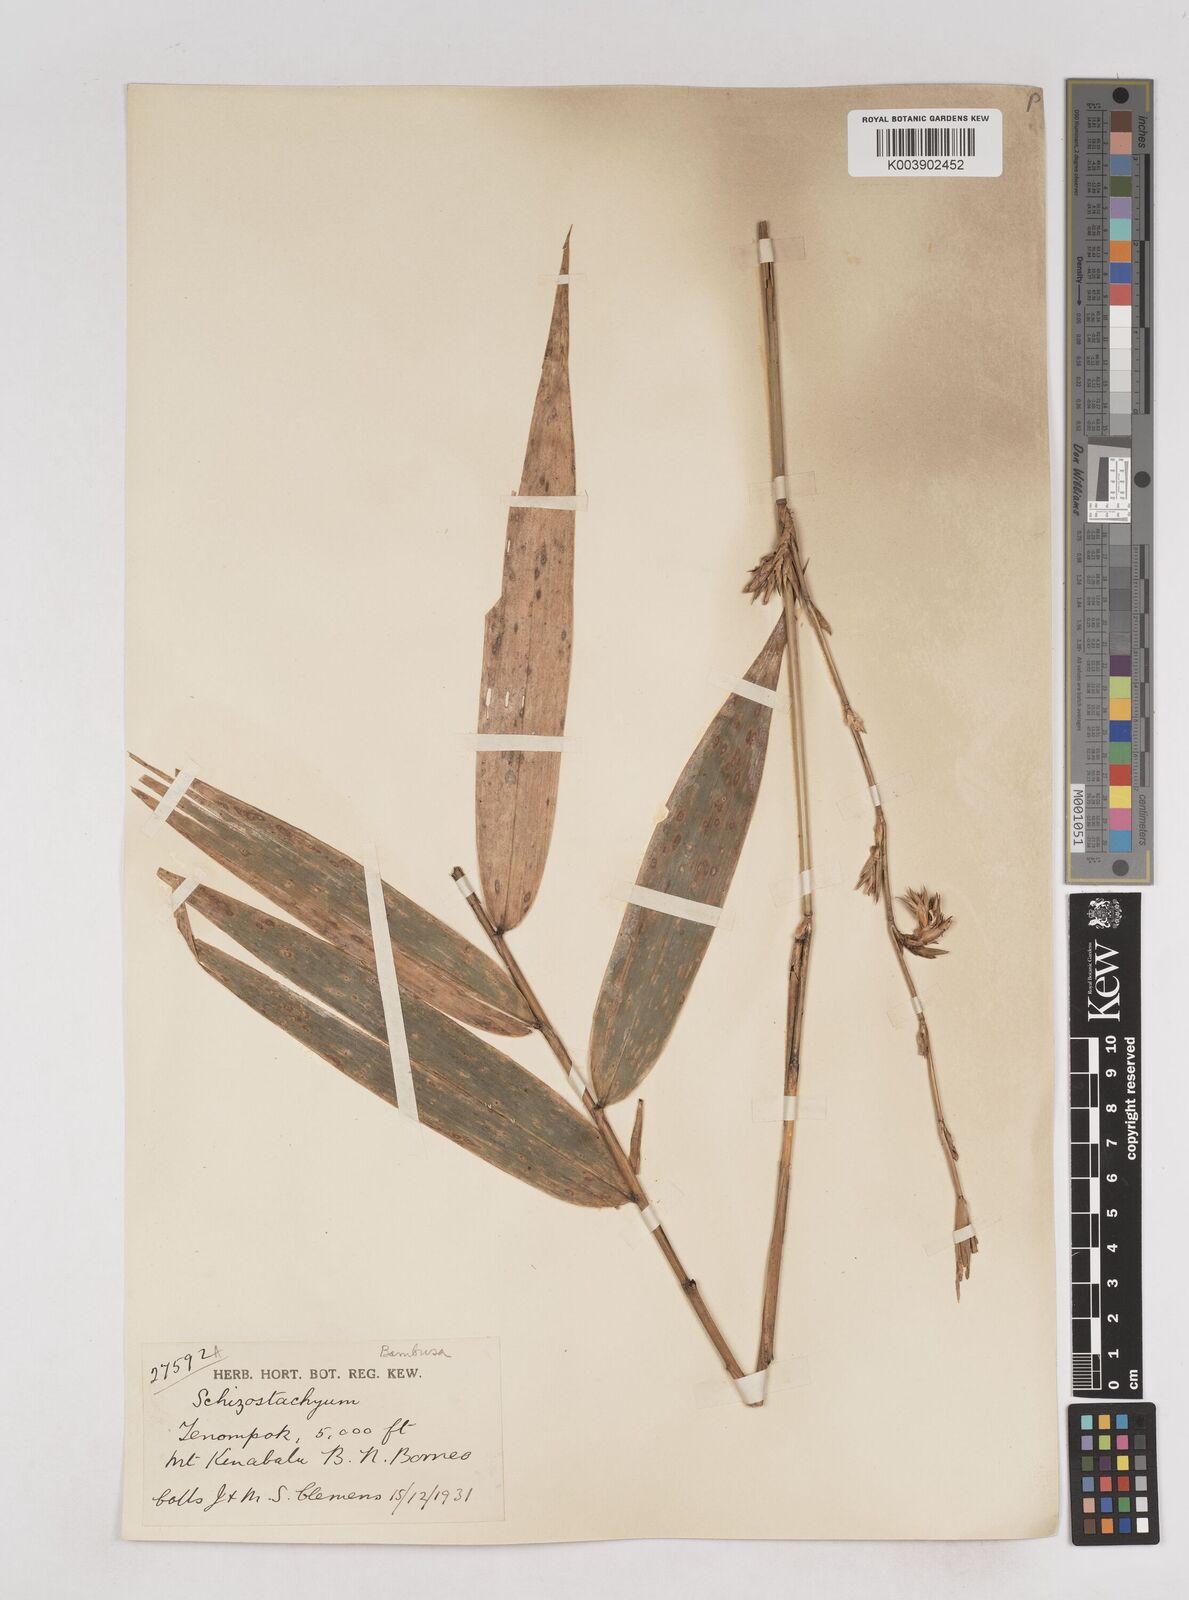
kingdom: Plantae
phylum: Tracheophyta
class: Liliopsida
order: Poales
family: Poaceae
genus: Schizostachyum
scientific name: Schizostachyum
